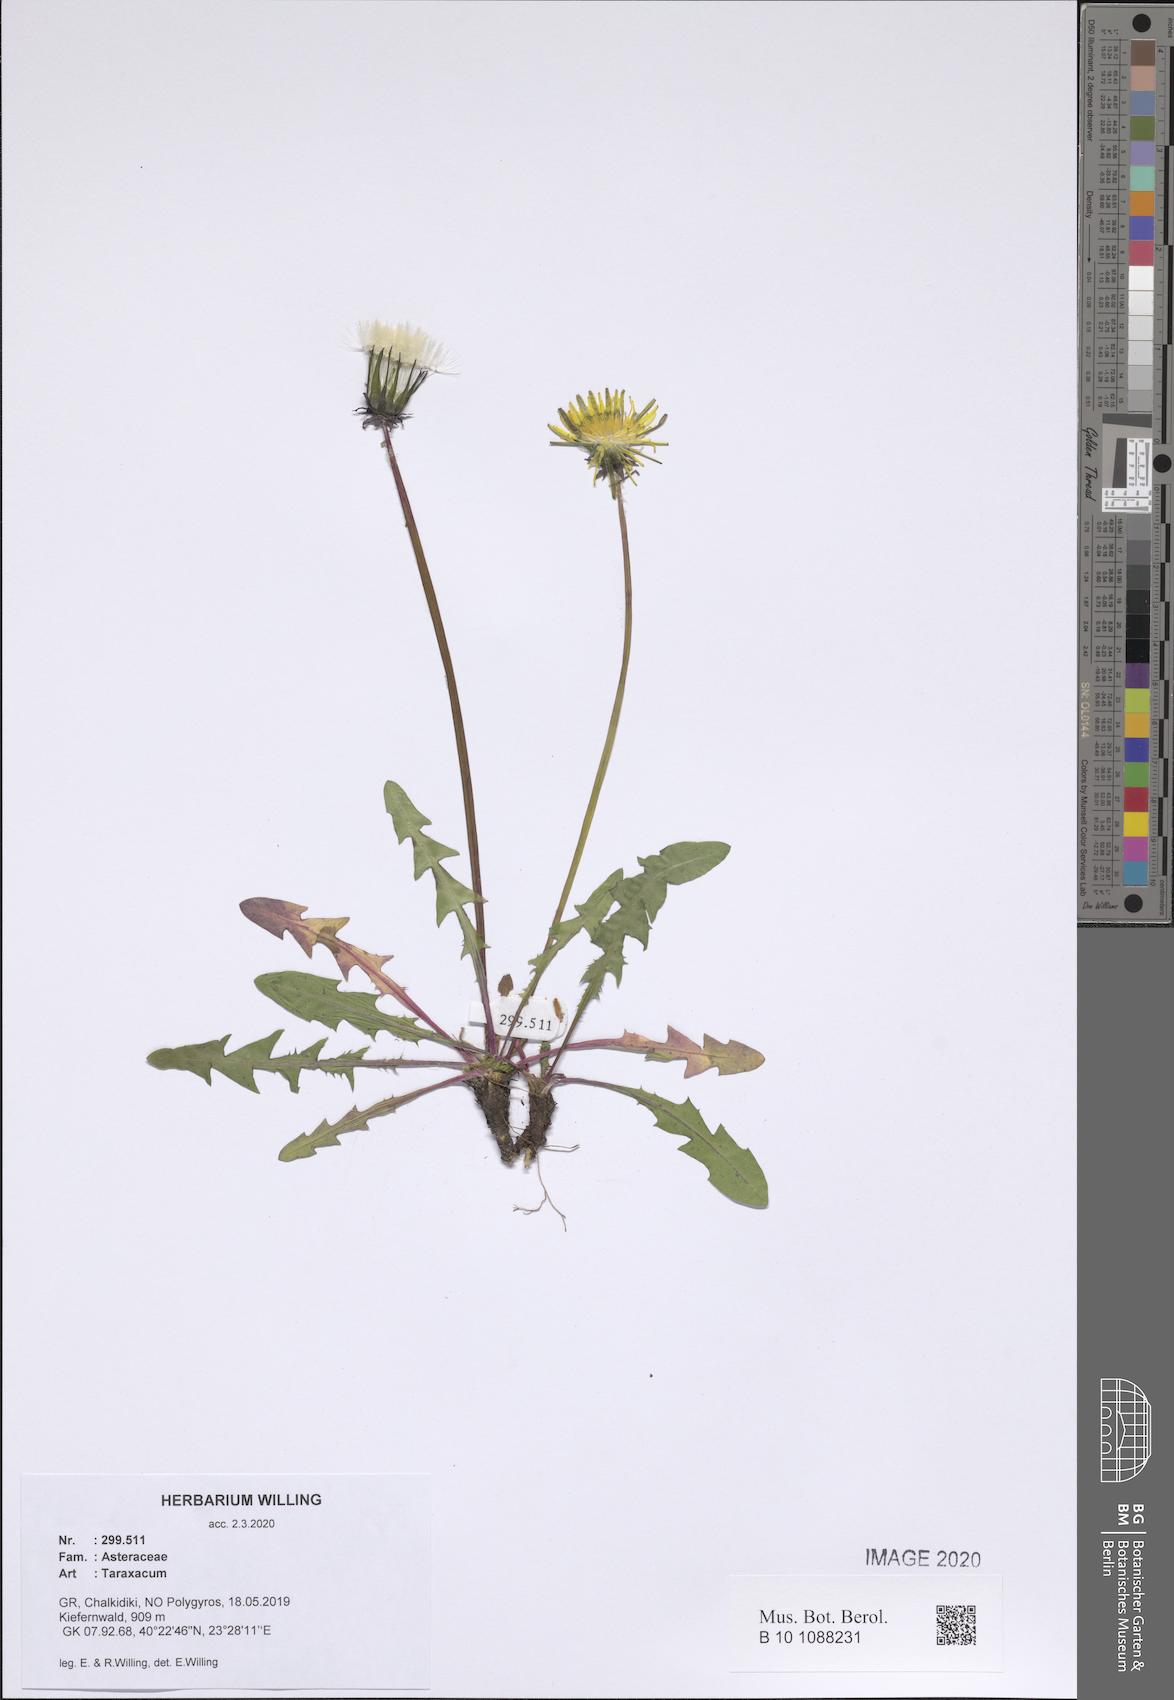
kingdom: Plantae
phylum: Tracheophyta
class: Magnoliopsida
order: Asterales
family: Asteraceae
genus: Taraxacum
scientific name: Taraxacum
